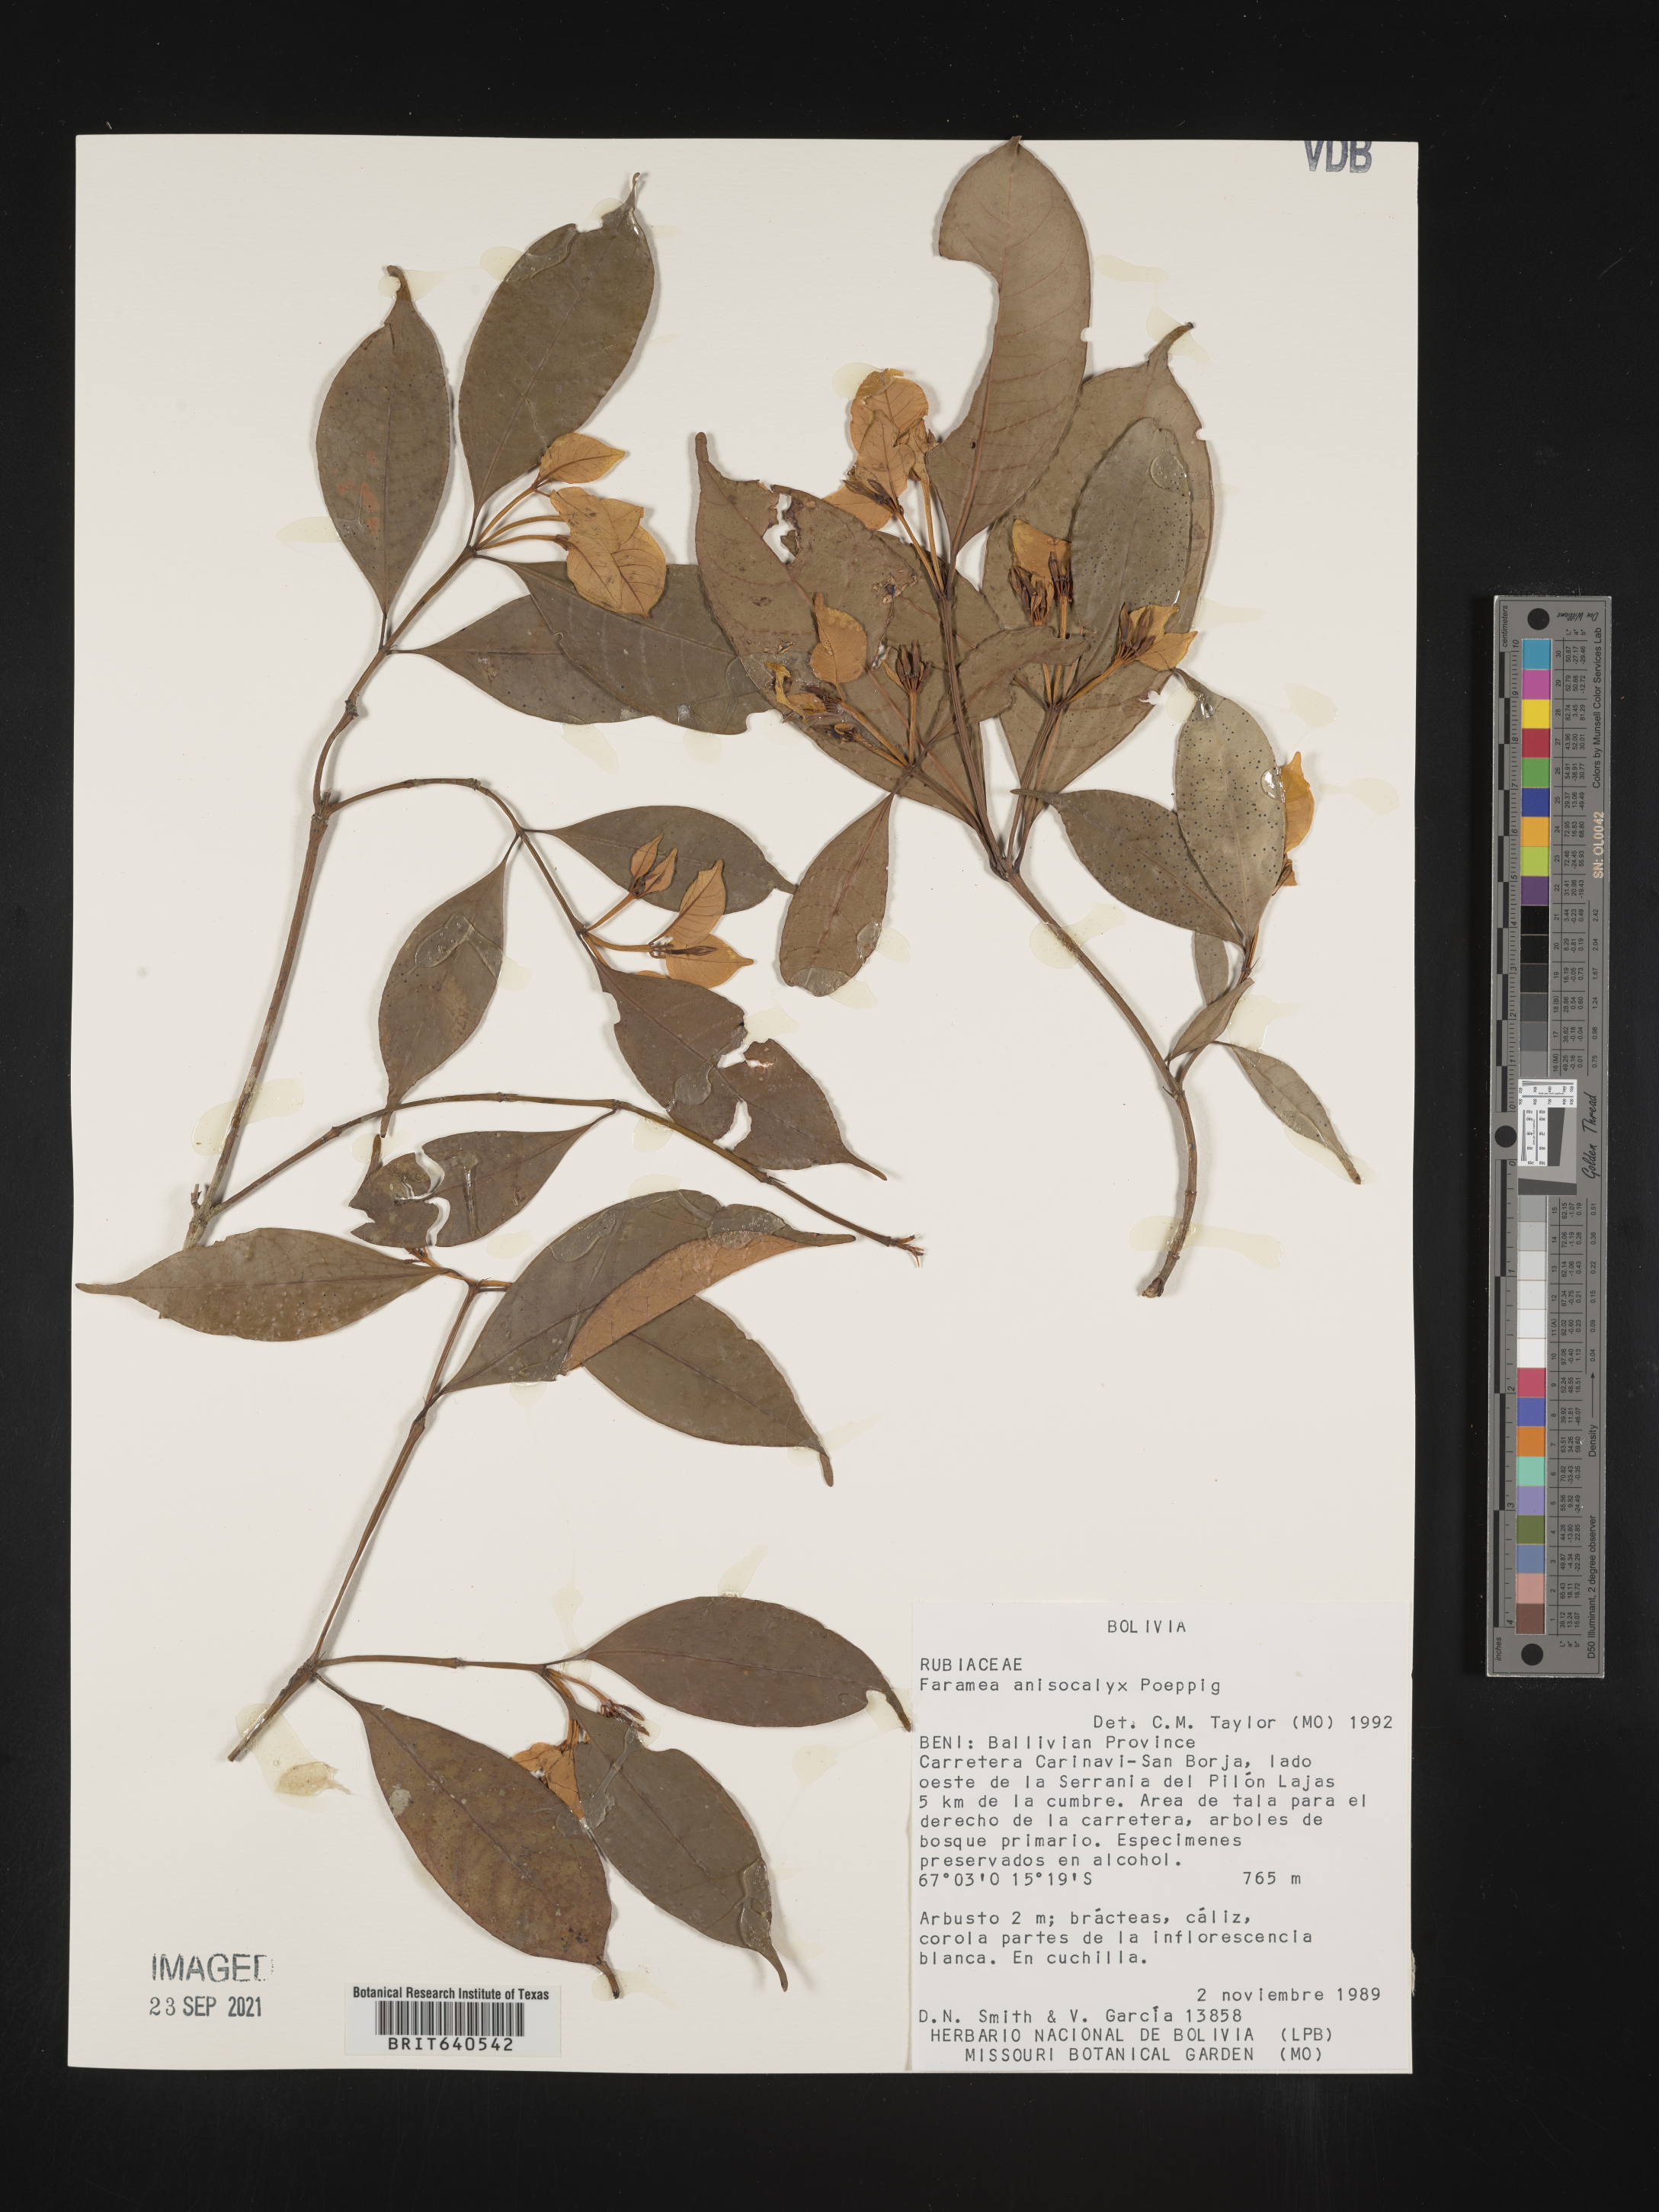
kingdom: Plantae
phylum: Tracheophyta
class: Magnoliopsida
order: Gentianales
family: Rubiaceae
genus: Faramea
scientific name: Faramea
